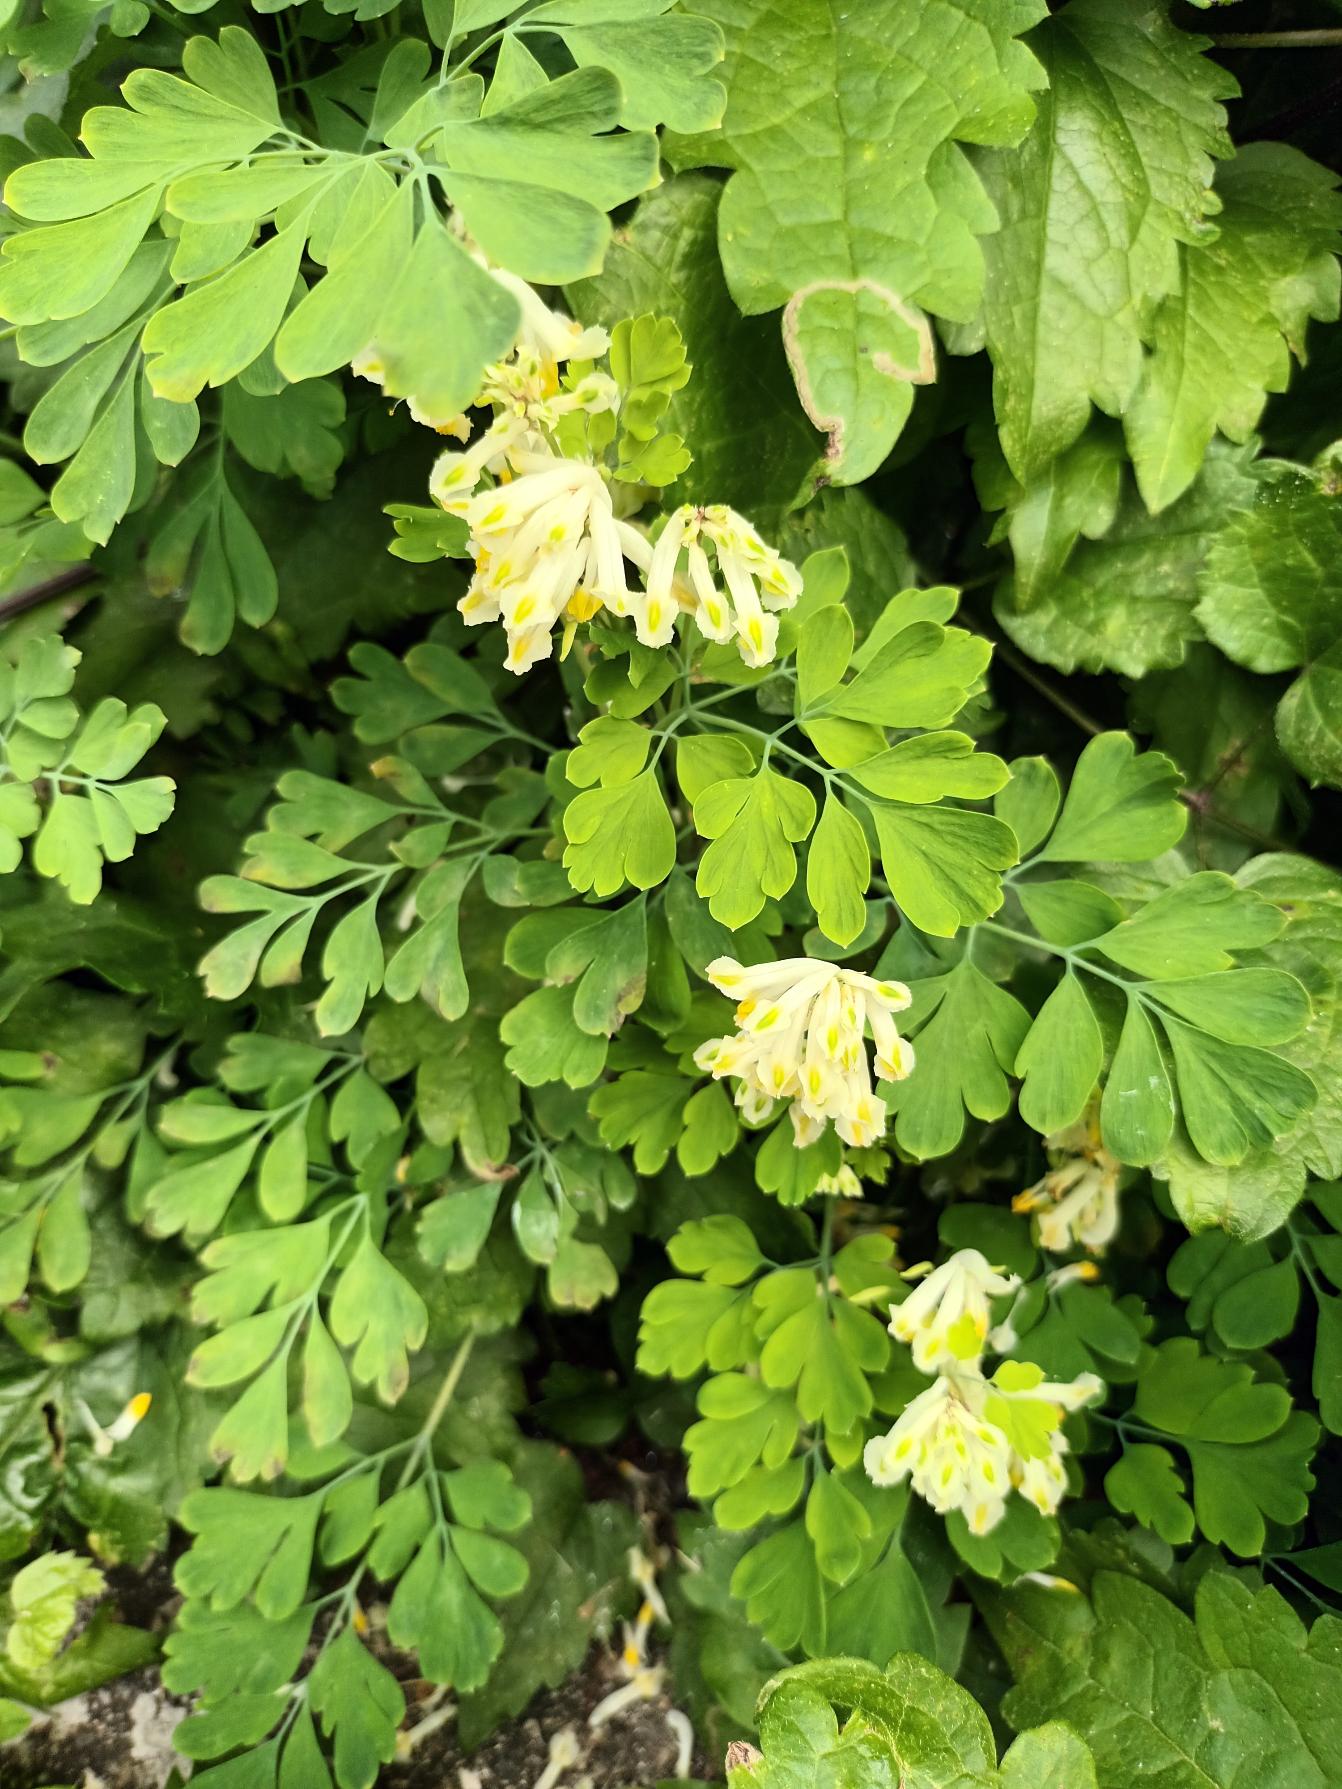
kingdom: Plantae
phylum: Tracheophyta
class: Magnoliopsida
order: Ranunculales
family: Papaveraceae
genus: Pseudofumaria
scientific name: Pseudofumaria alba
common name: Hvidgul lærkespore
